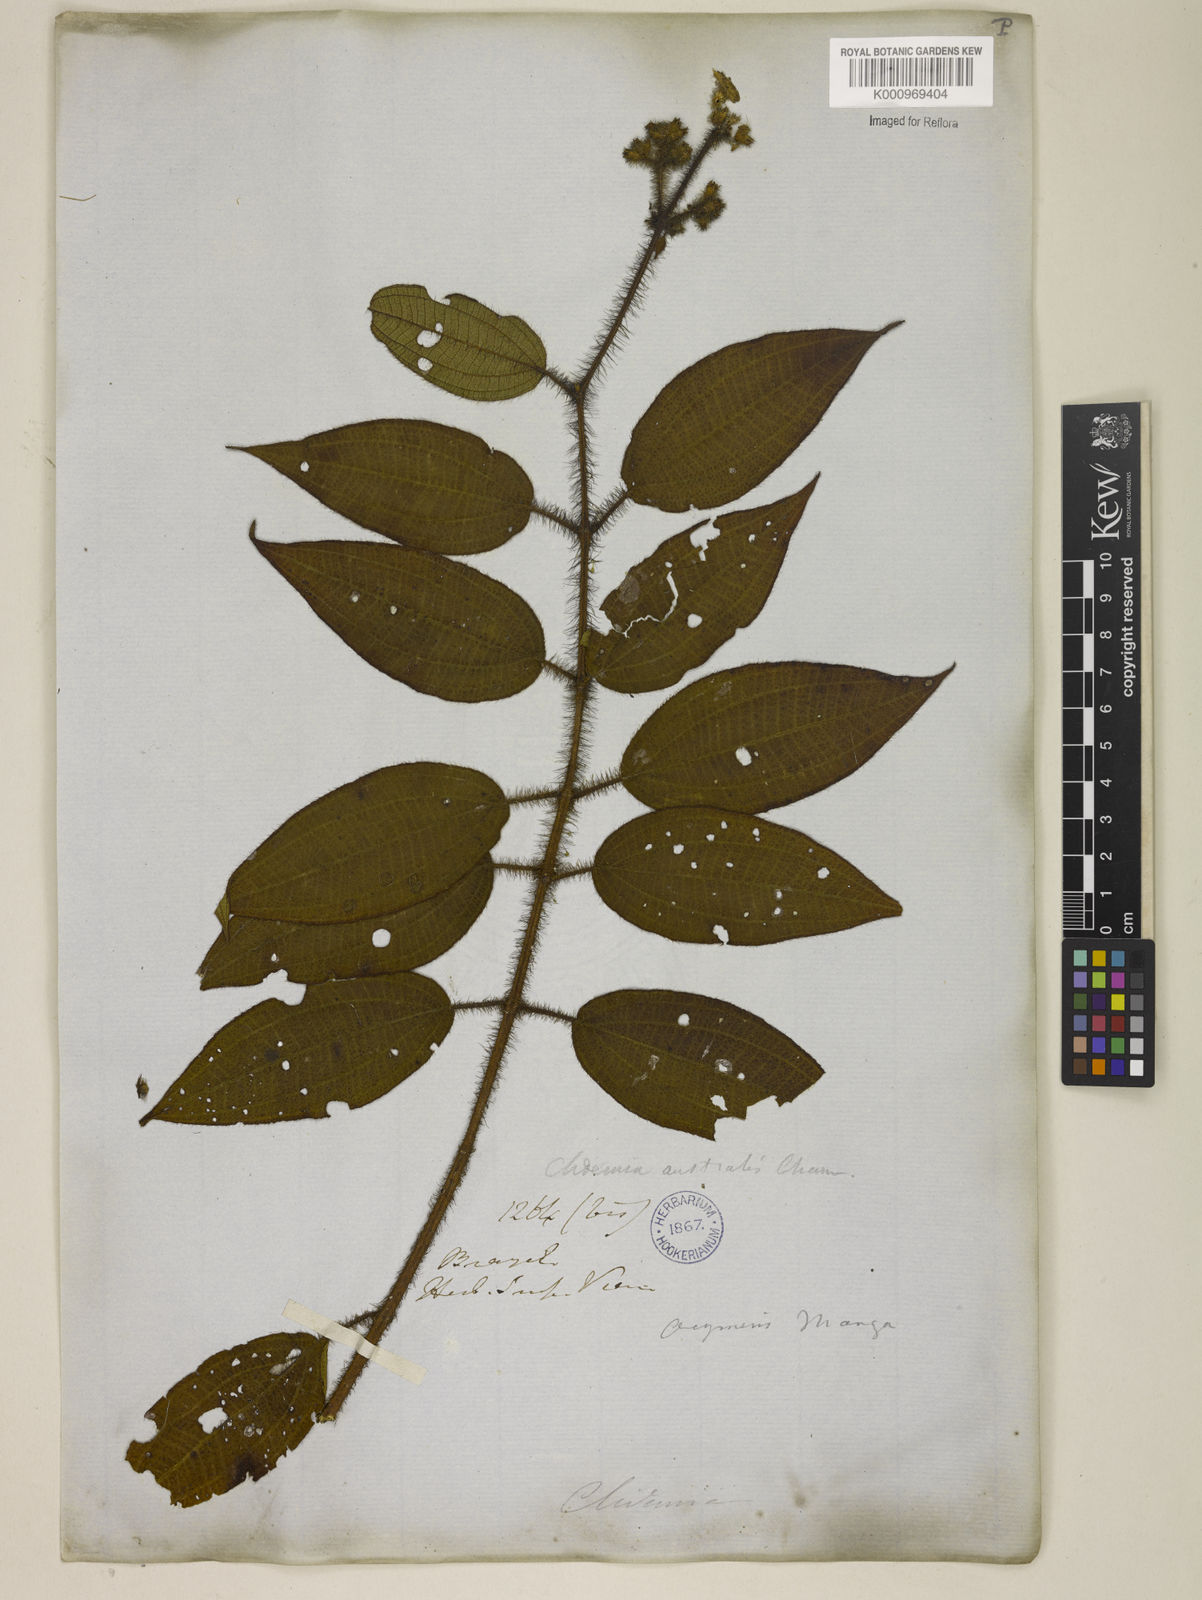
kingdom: Plantae
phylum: Tracheophyta
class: Magnoliopsida
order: Myrtales
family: Melastomataceae
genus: Miconia
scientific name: Miconia nianga
